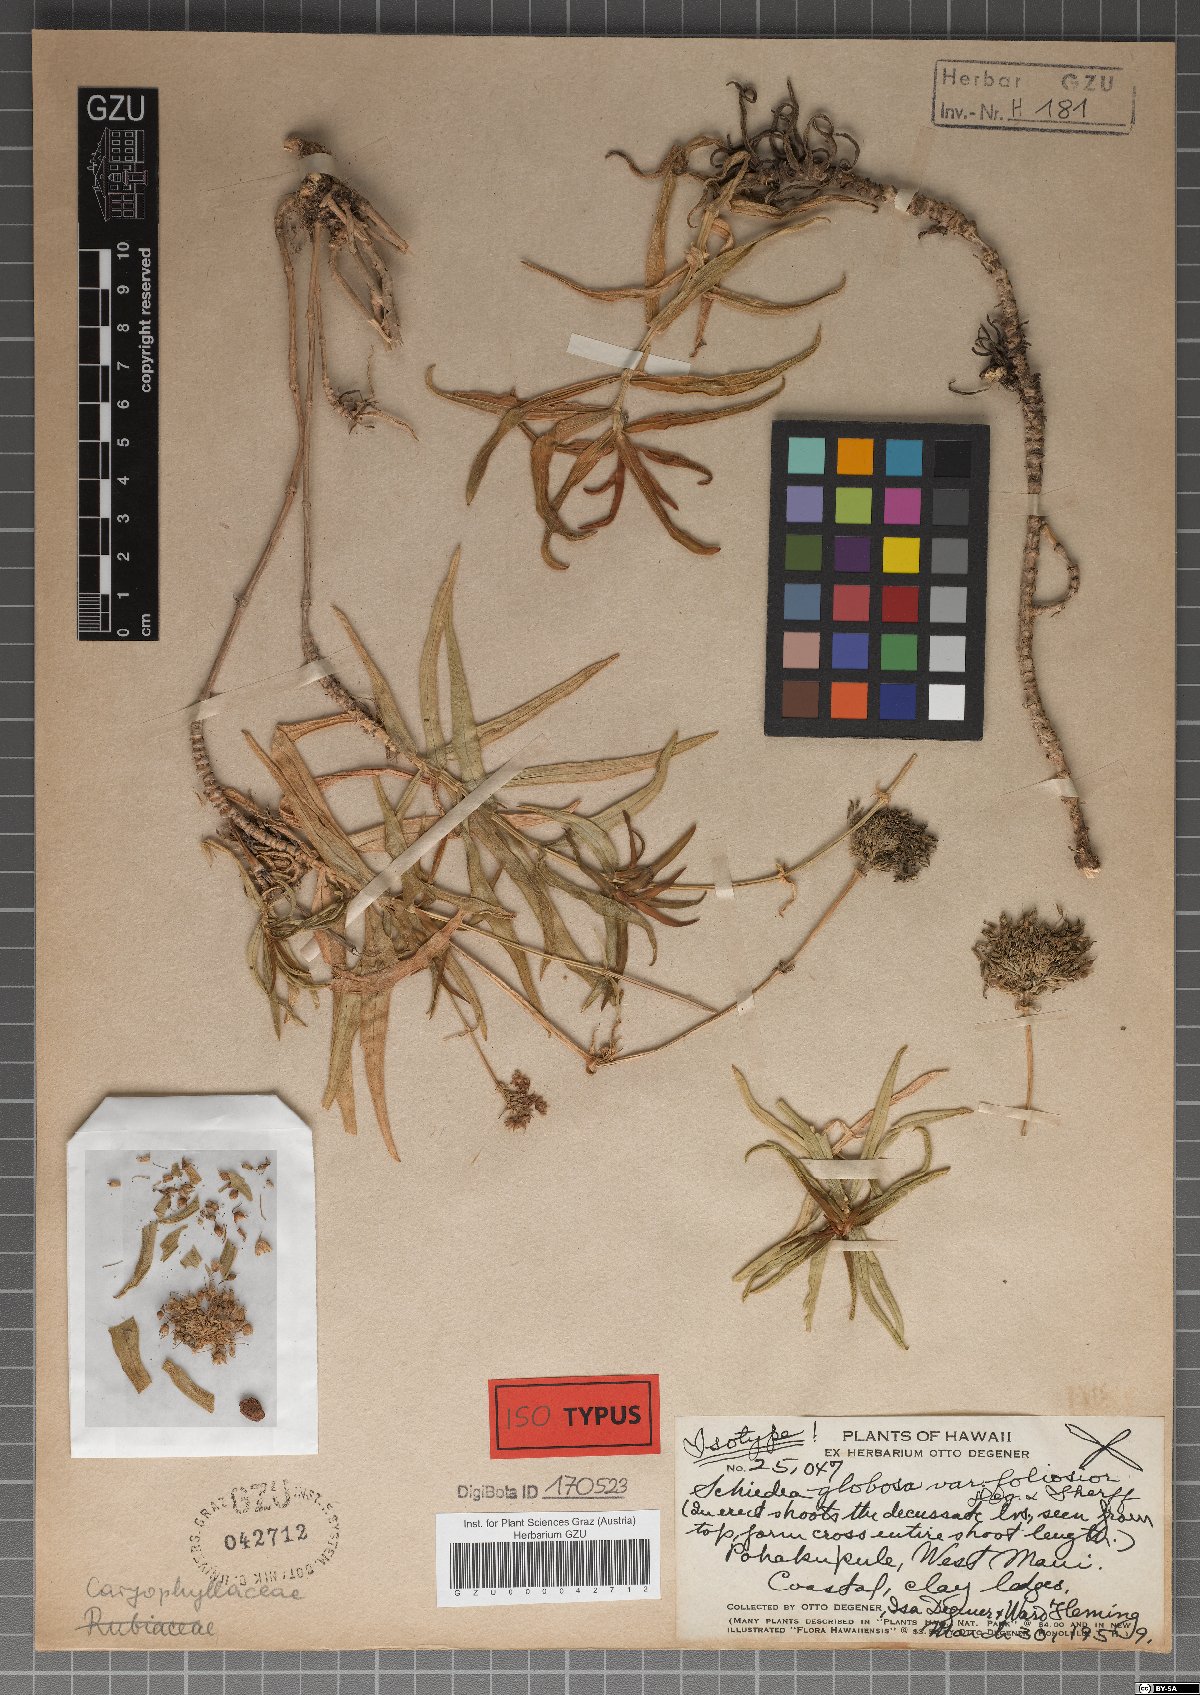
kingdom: Plantae
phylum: Tracheophyta
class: Magnoliopsida
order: Caryophyllales
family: Caryophyllaceae
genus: Schiedea
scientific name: Schiedea globosa
